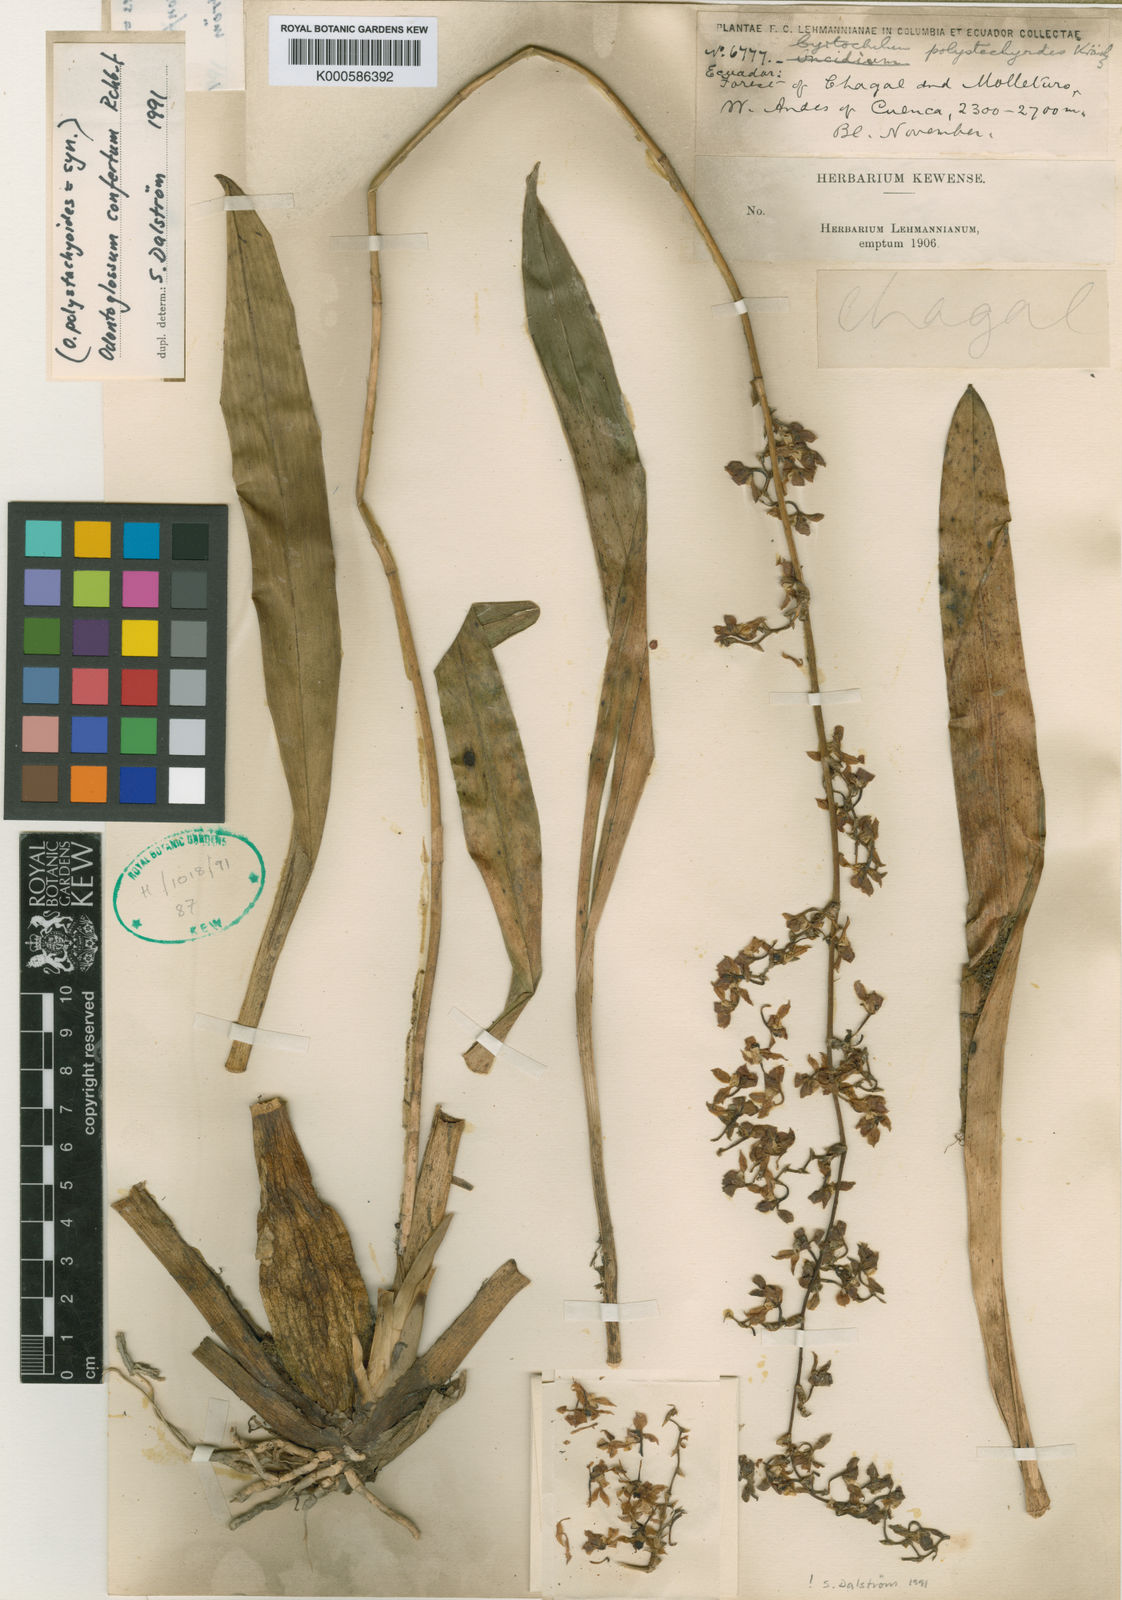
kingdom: Plantae
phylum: Tracheophyta
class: Liliopsida
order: Asparagales
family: Orchidaceae
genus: Cyrtochilum
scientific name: Cyrtochilum
